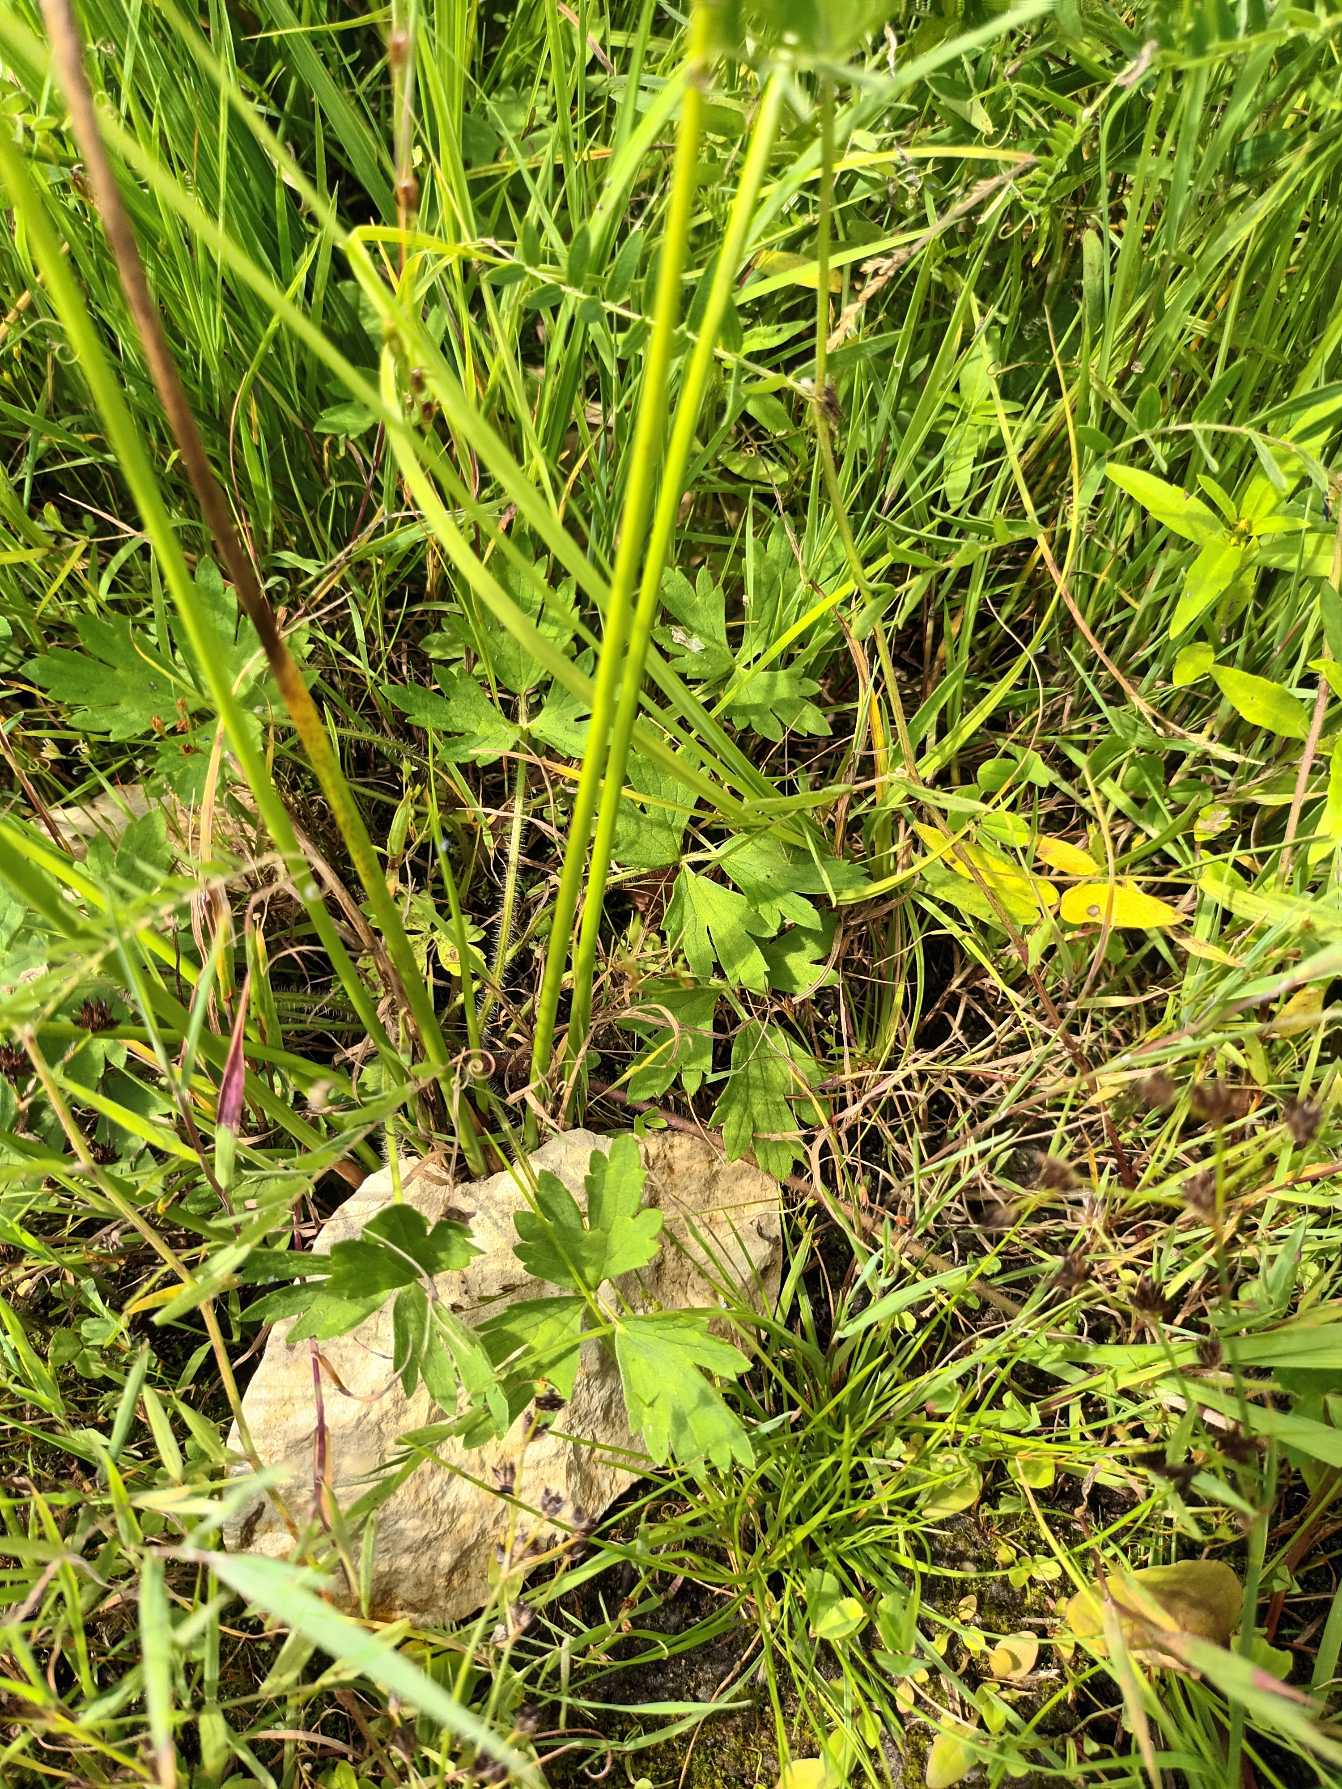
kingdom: Plantae
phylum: Tracheophyta
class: Magnoliopsida
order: Ranunculales
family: Ranunculaceae
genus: Ranunculus
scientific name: Ranunculus repens
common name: Lav ranunkel
